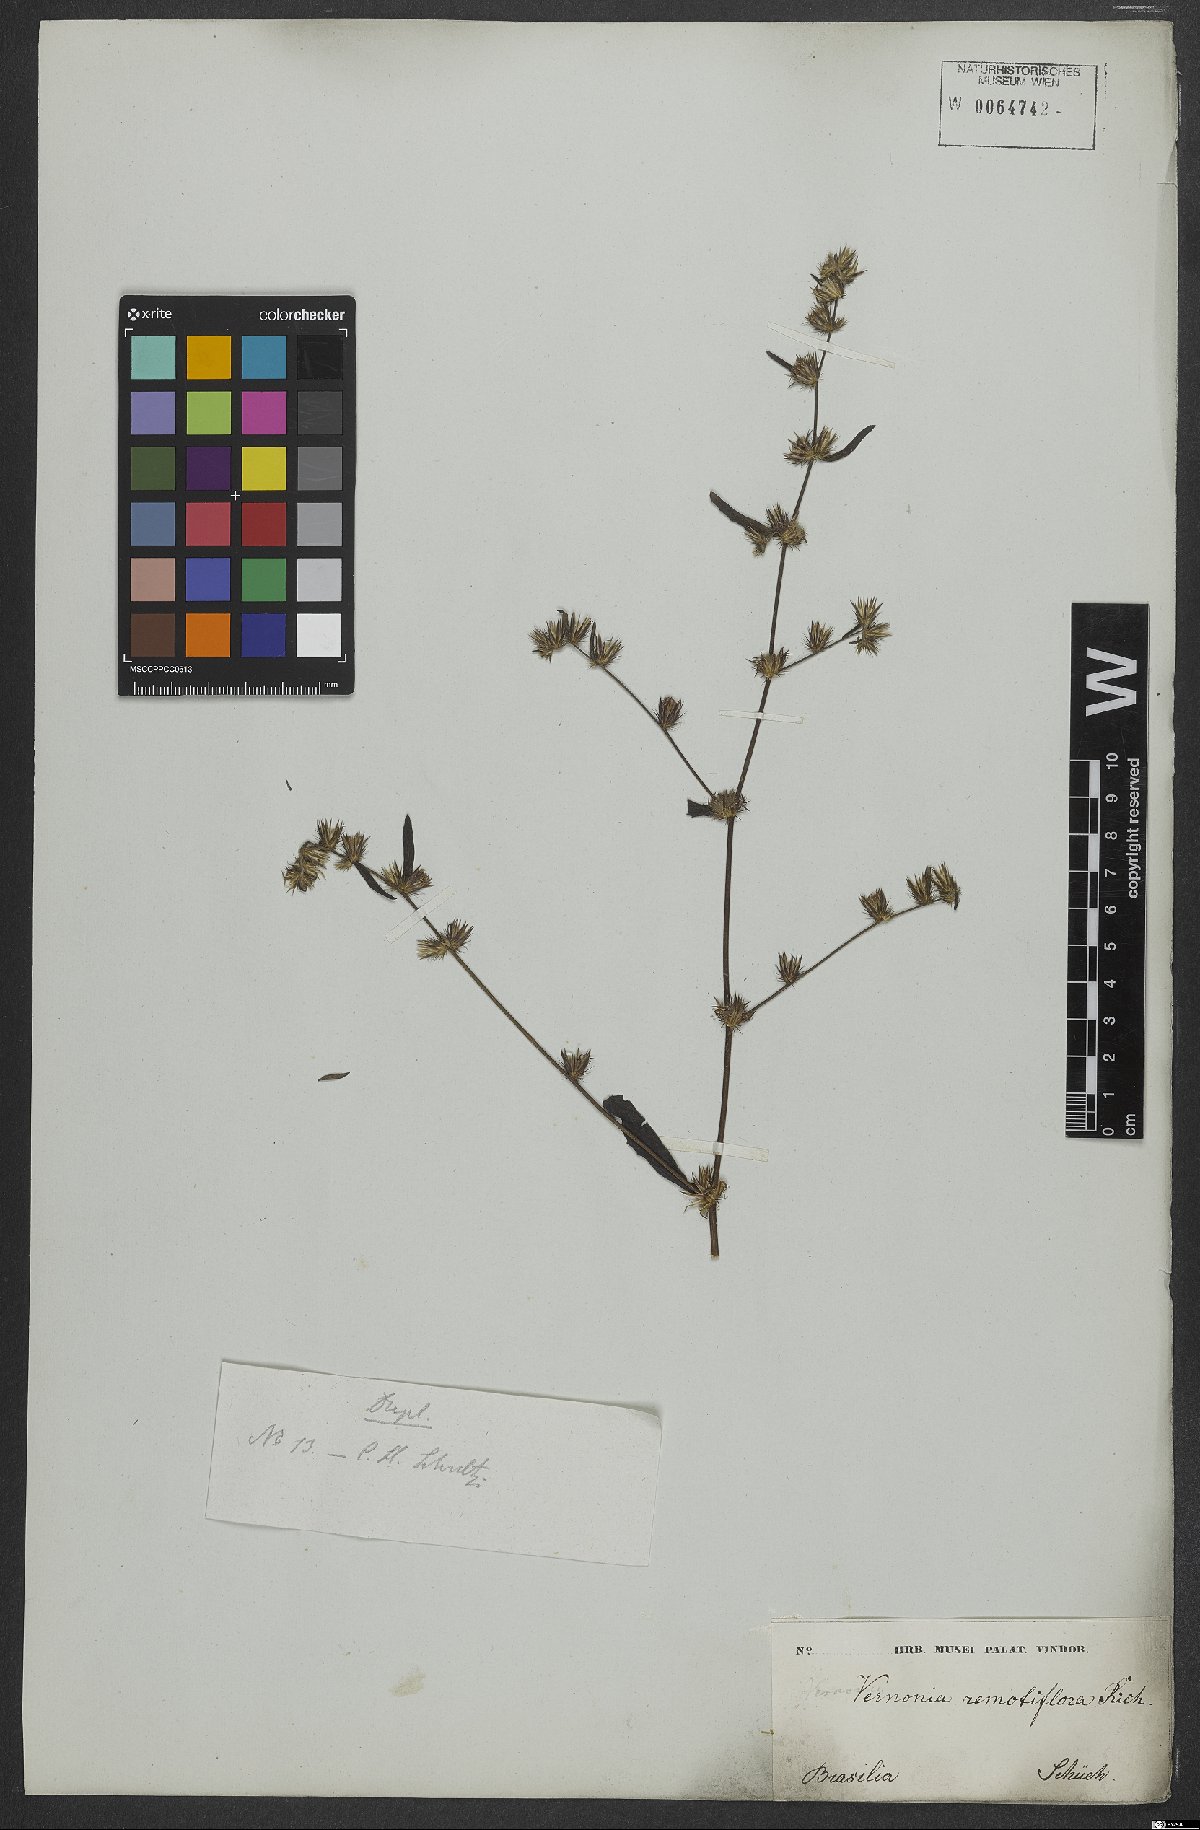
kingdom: Plantae
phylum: Tracheophyta
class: Magnoliopsida
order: Asterales
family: Asteraceae
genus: Lepidaploa
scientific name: Lepidaploa remotiflora
